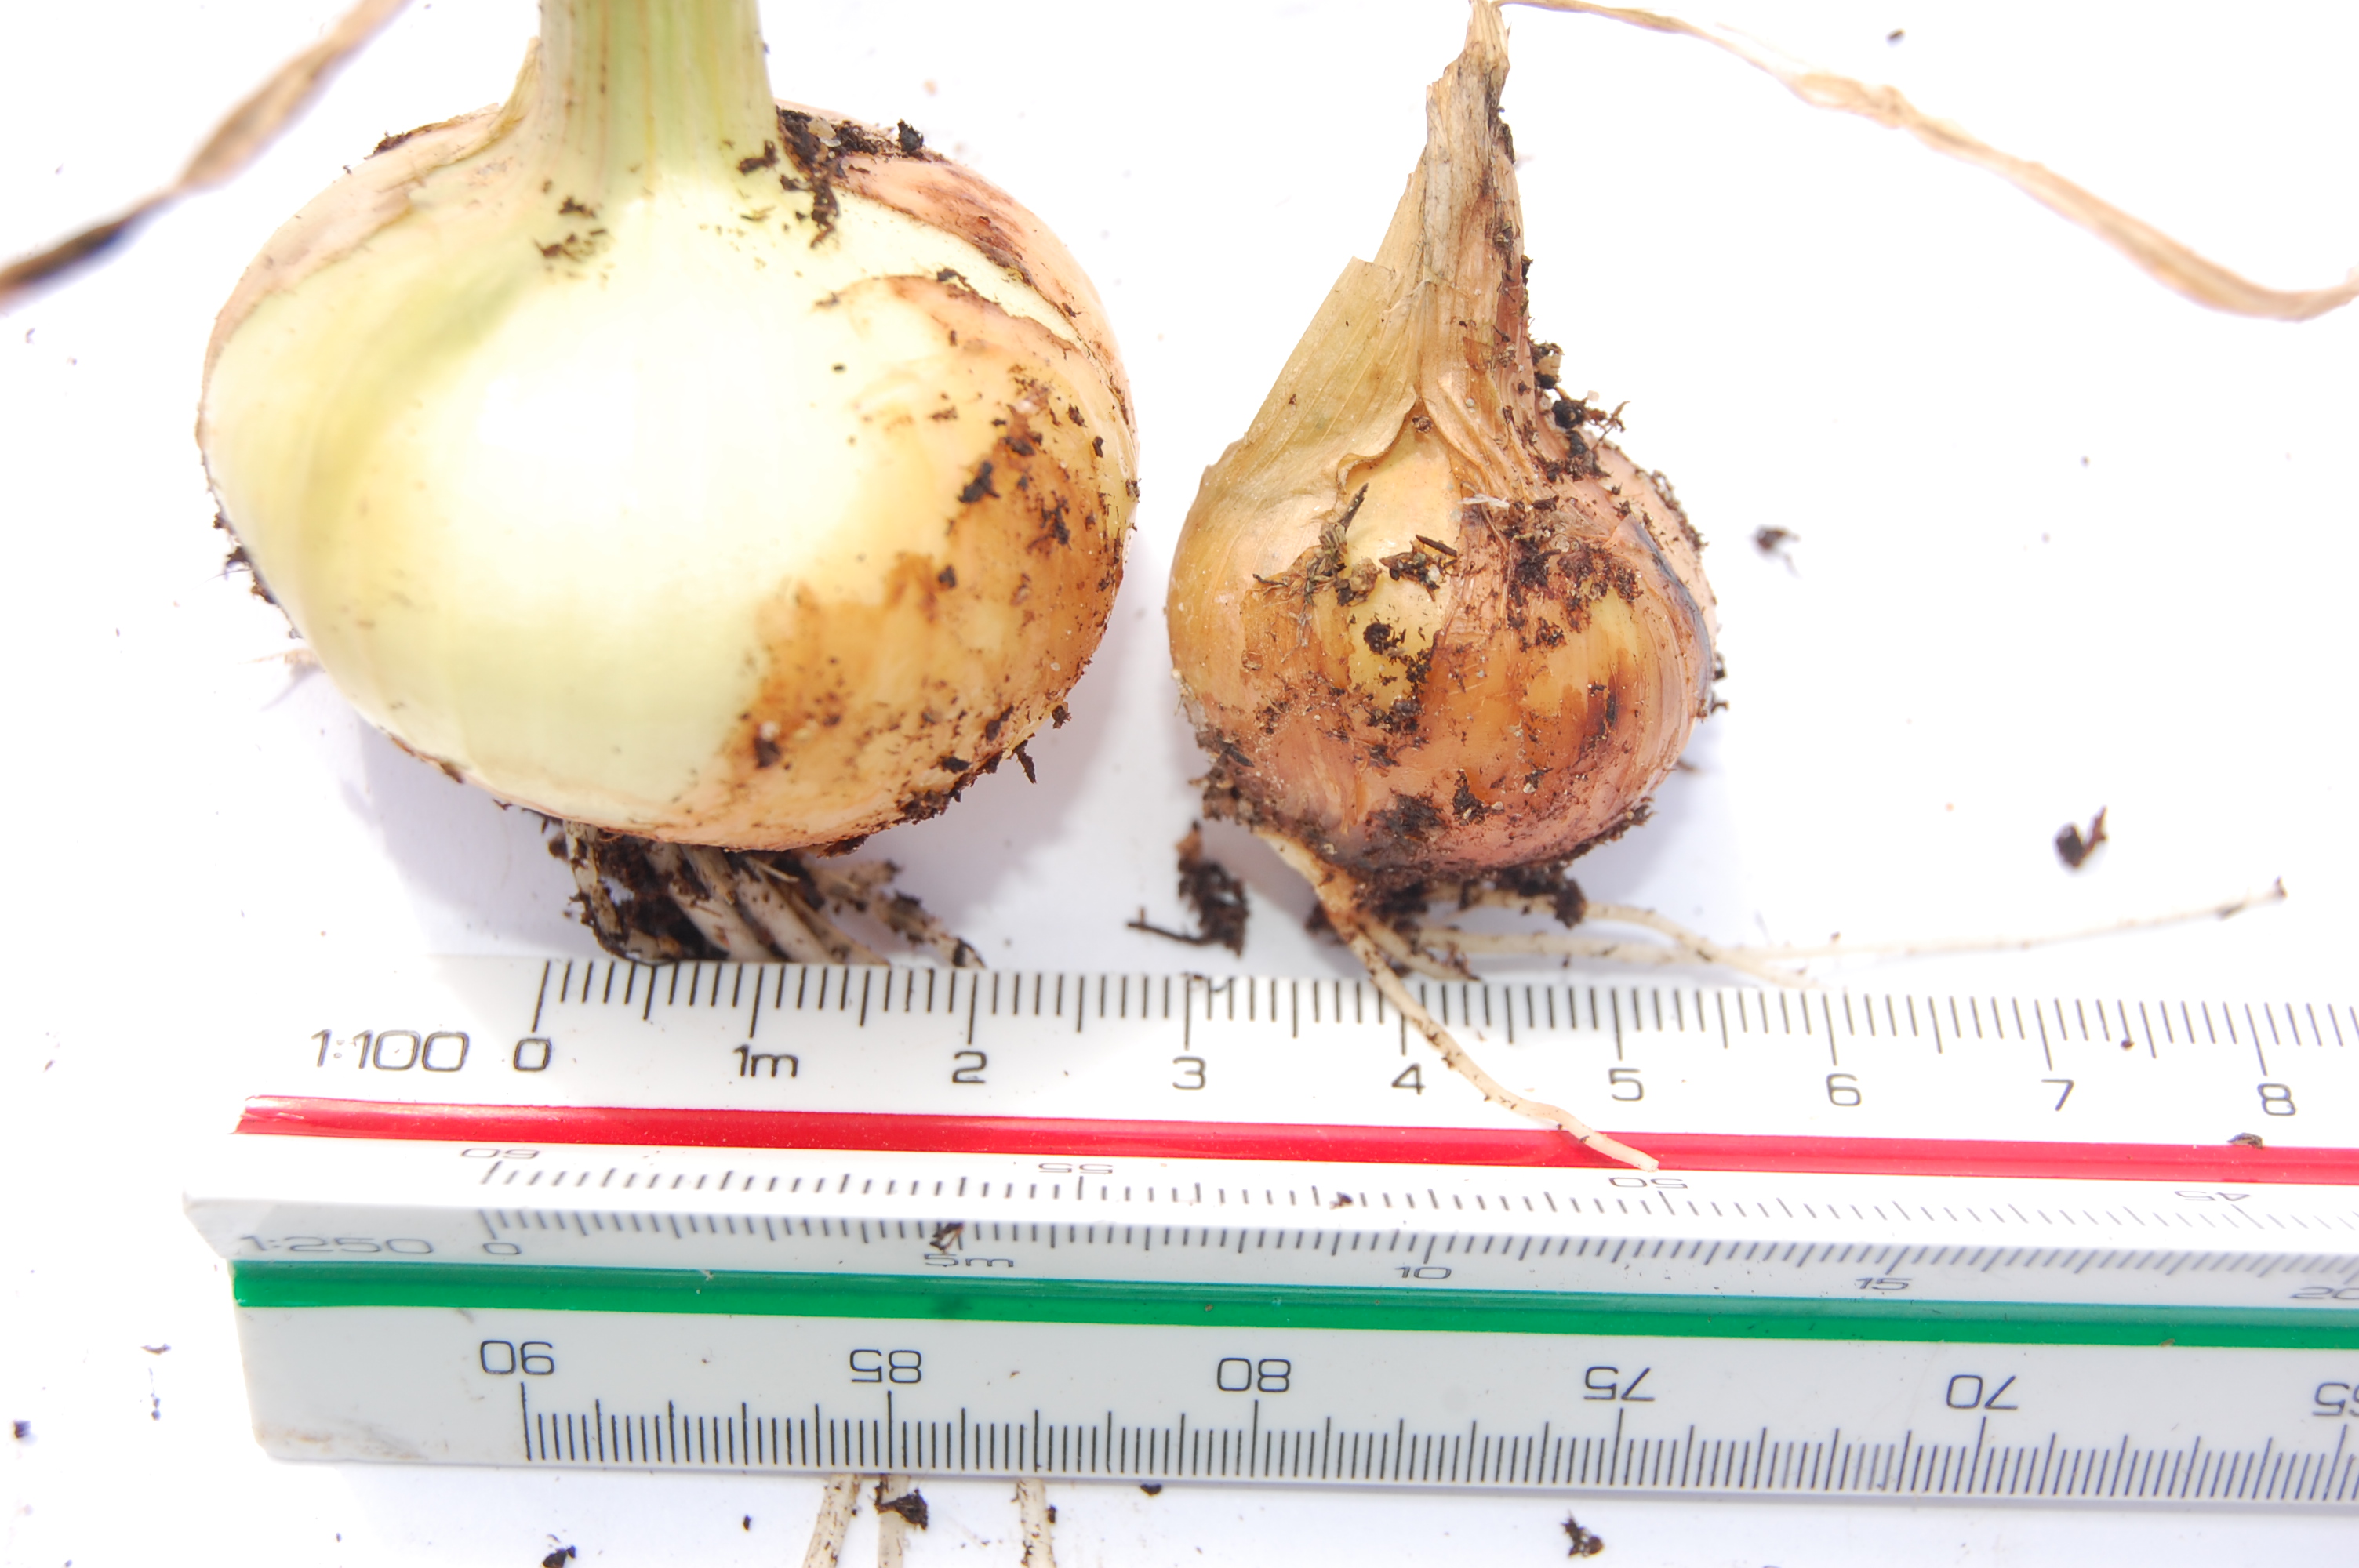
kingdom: Plantae
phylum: Tracheophyta
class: Liliopsida
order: Asparagales
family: Amaryllidaceae
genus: Allium
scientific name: Allium cepa
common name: Onion
